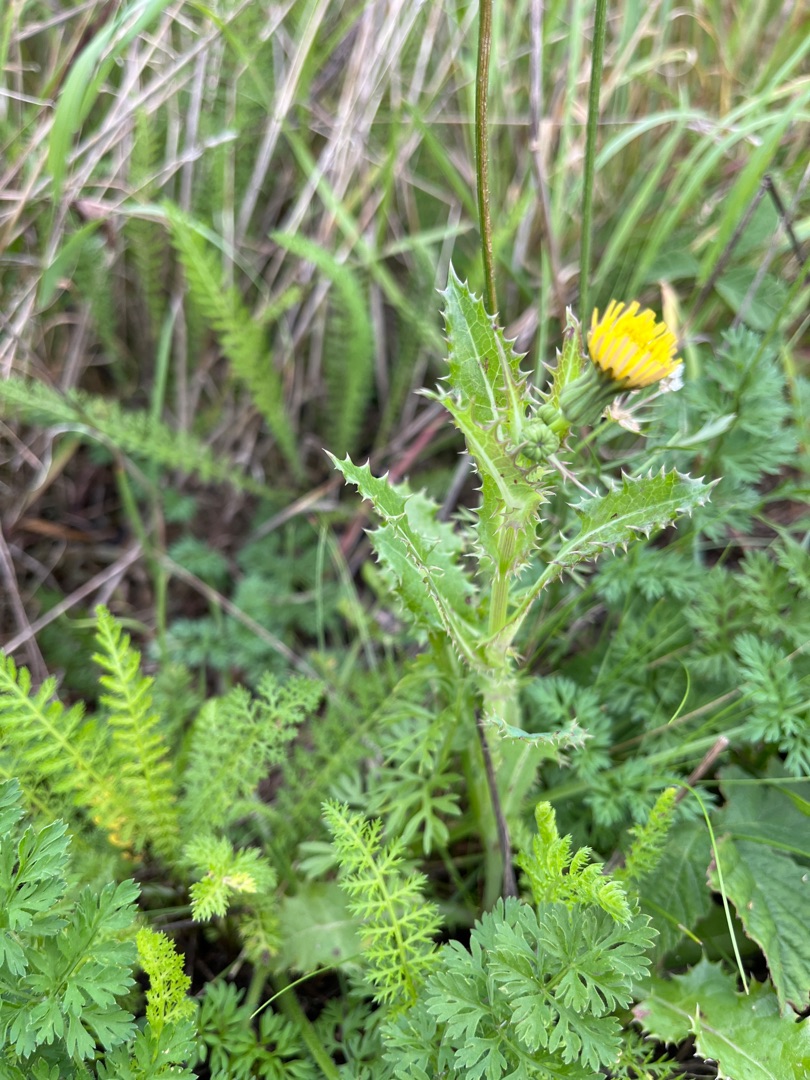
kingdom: Plantae
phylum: Tracheophyta
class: Magnoliopsida
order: Asterales
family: Asteraceae
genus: Sonchus
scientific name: Sonchus asper
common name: Ru svinemælk
